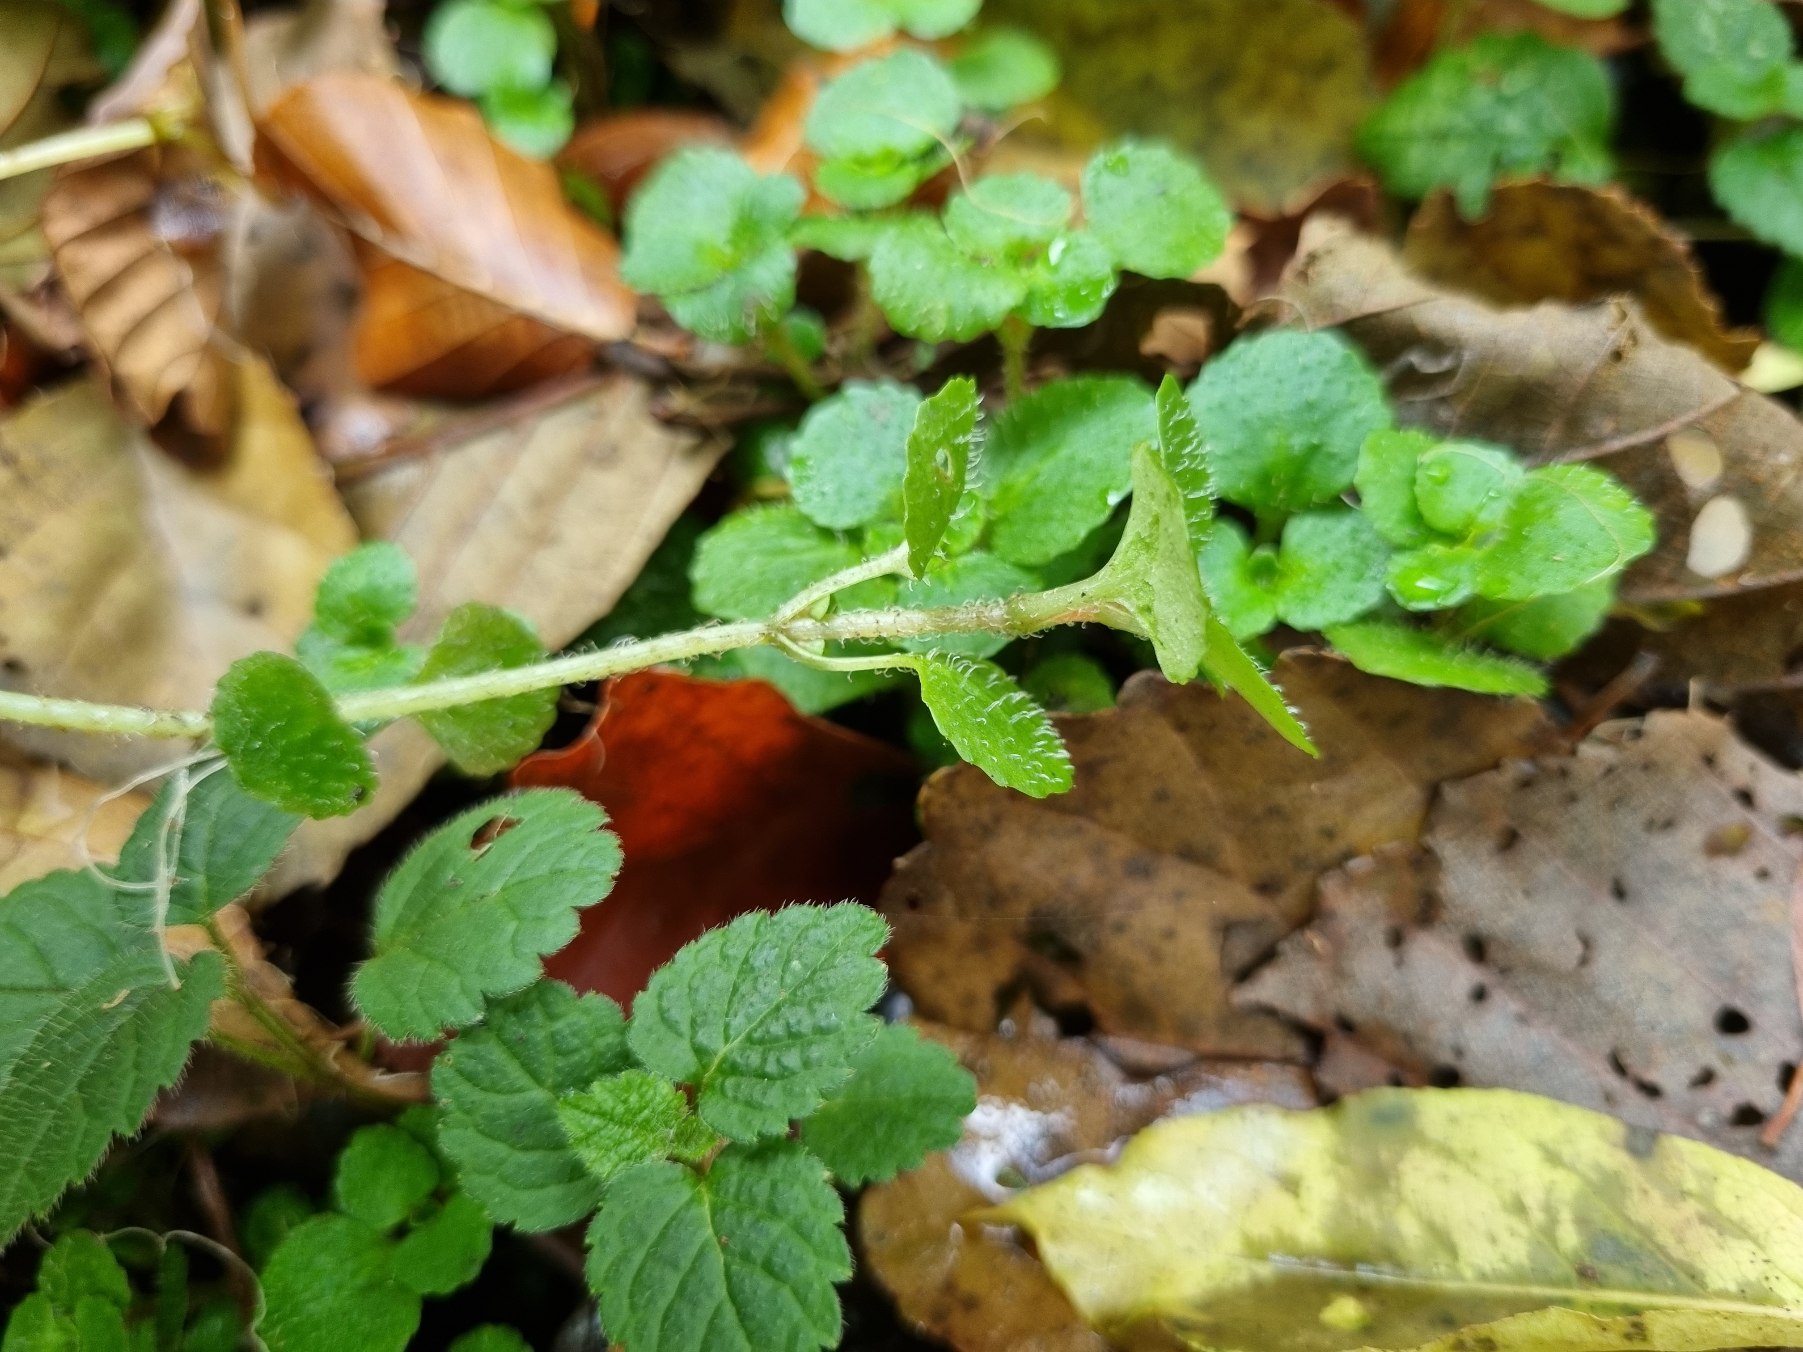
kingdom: Plantae
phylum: Tracheophyta
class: Magnoliopsida
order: Saxifragales
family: Saxifragaceae
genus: Chrysosplenium
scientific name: Chrysosplenium oppositifolium
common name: Småbladet milturt
